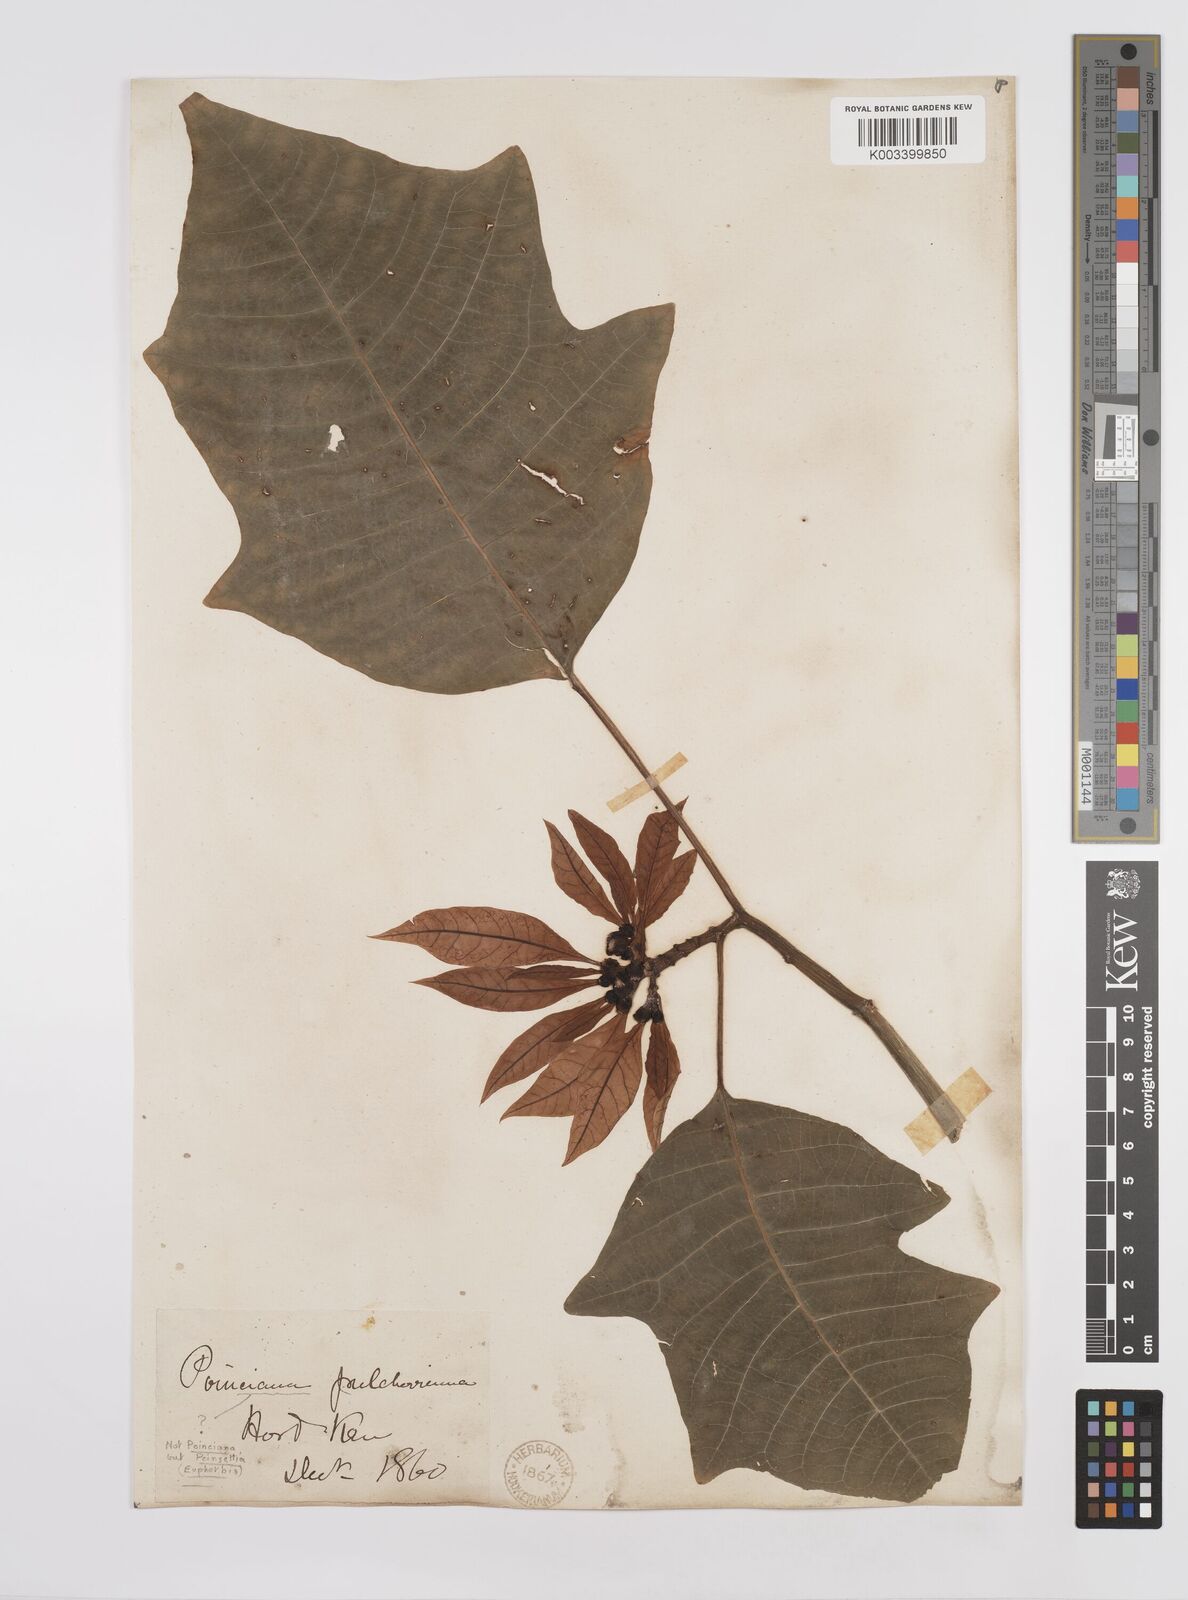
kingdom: Plantae
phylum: Tracheophyta
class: Magnoliopsida
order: Malpighiales
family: Euphorbiaceae
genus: Euphorbia
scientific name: Euphorbia pulcherrima
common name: Christmas-flower
